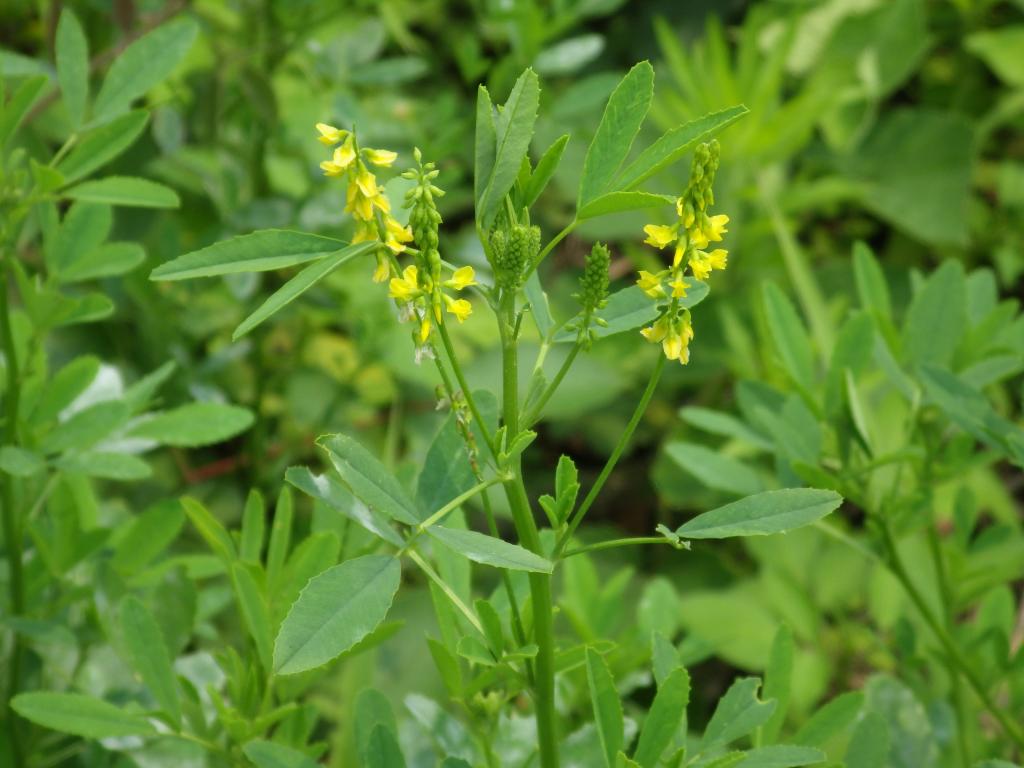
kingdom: Plantae
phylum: Tracheophyta
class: Magnoliopsida
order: Fabales
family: Fabaceae
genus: Melilotus
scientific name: Melilotus indicus
